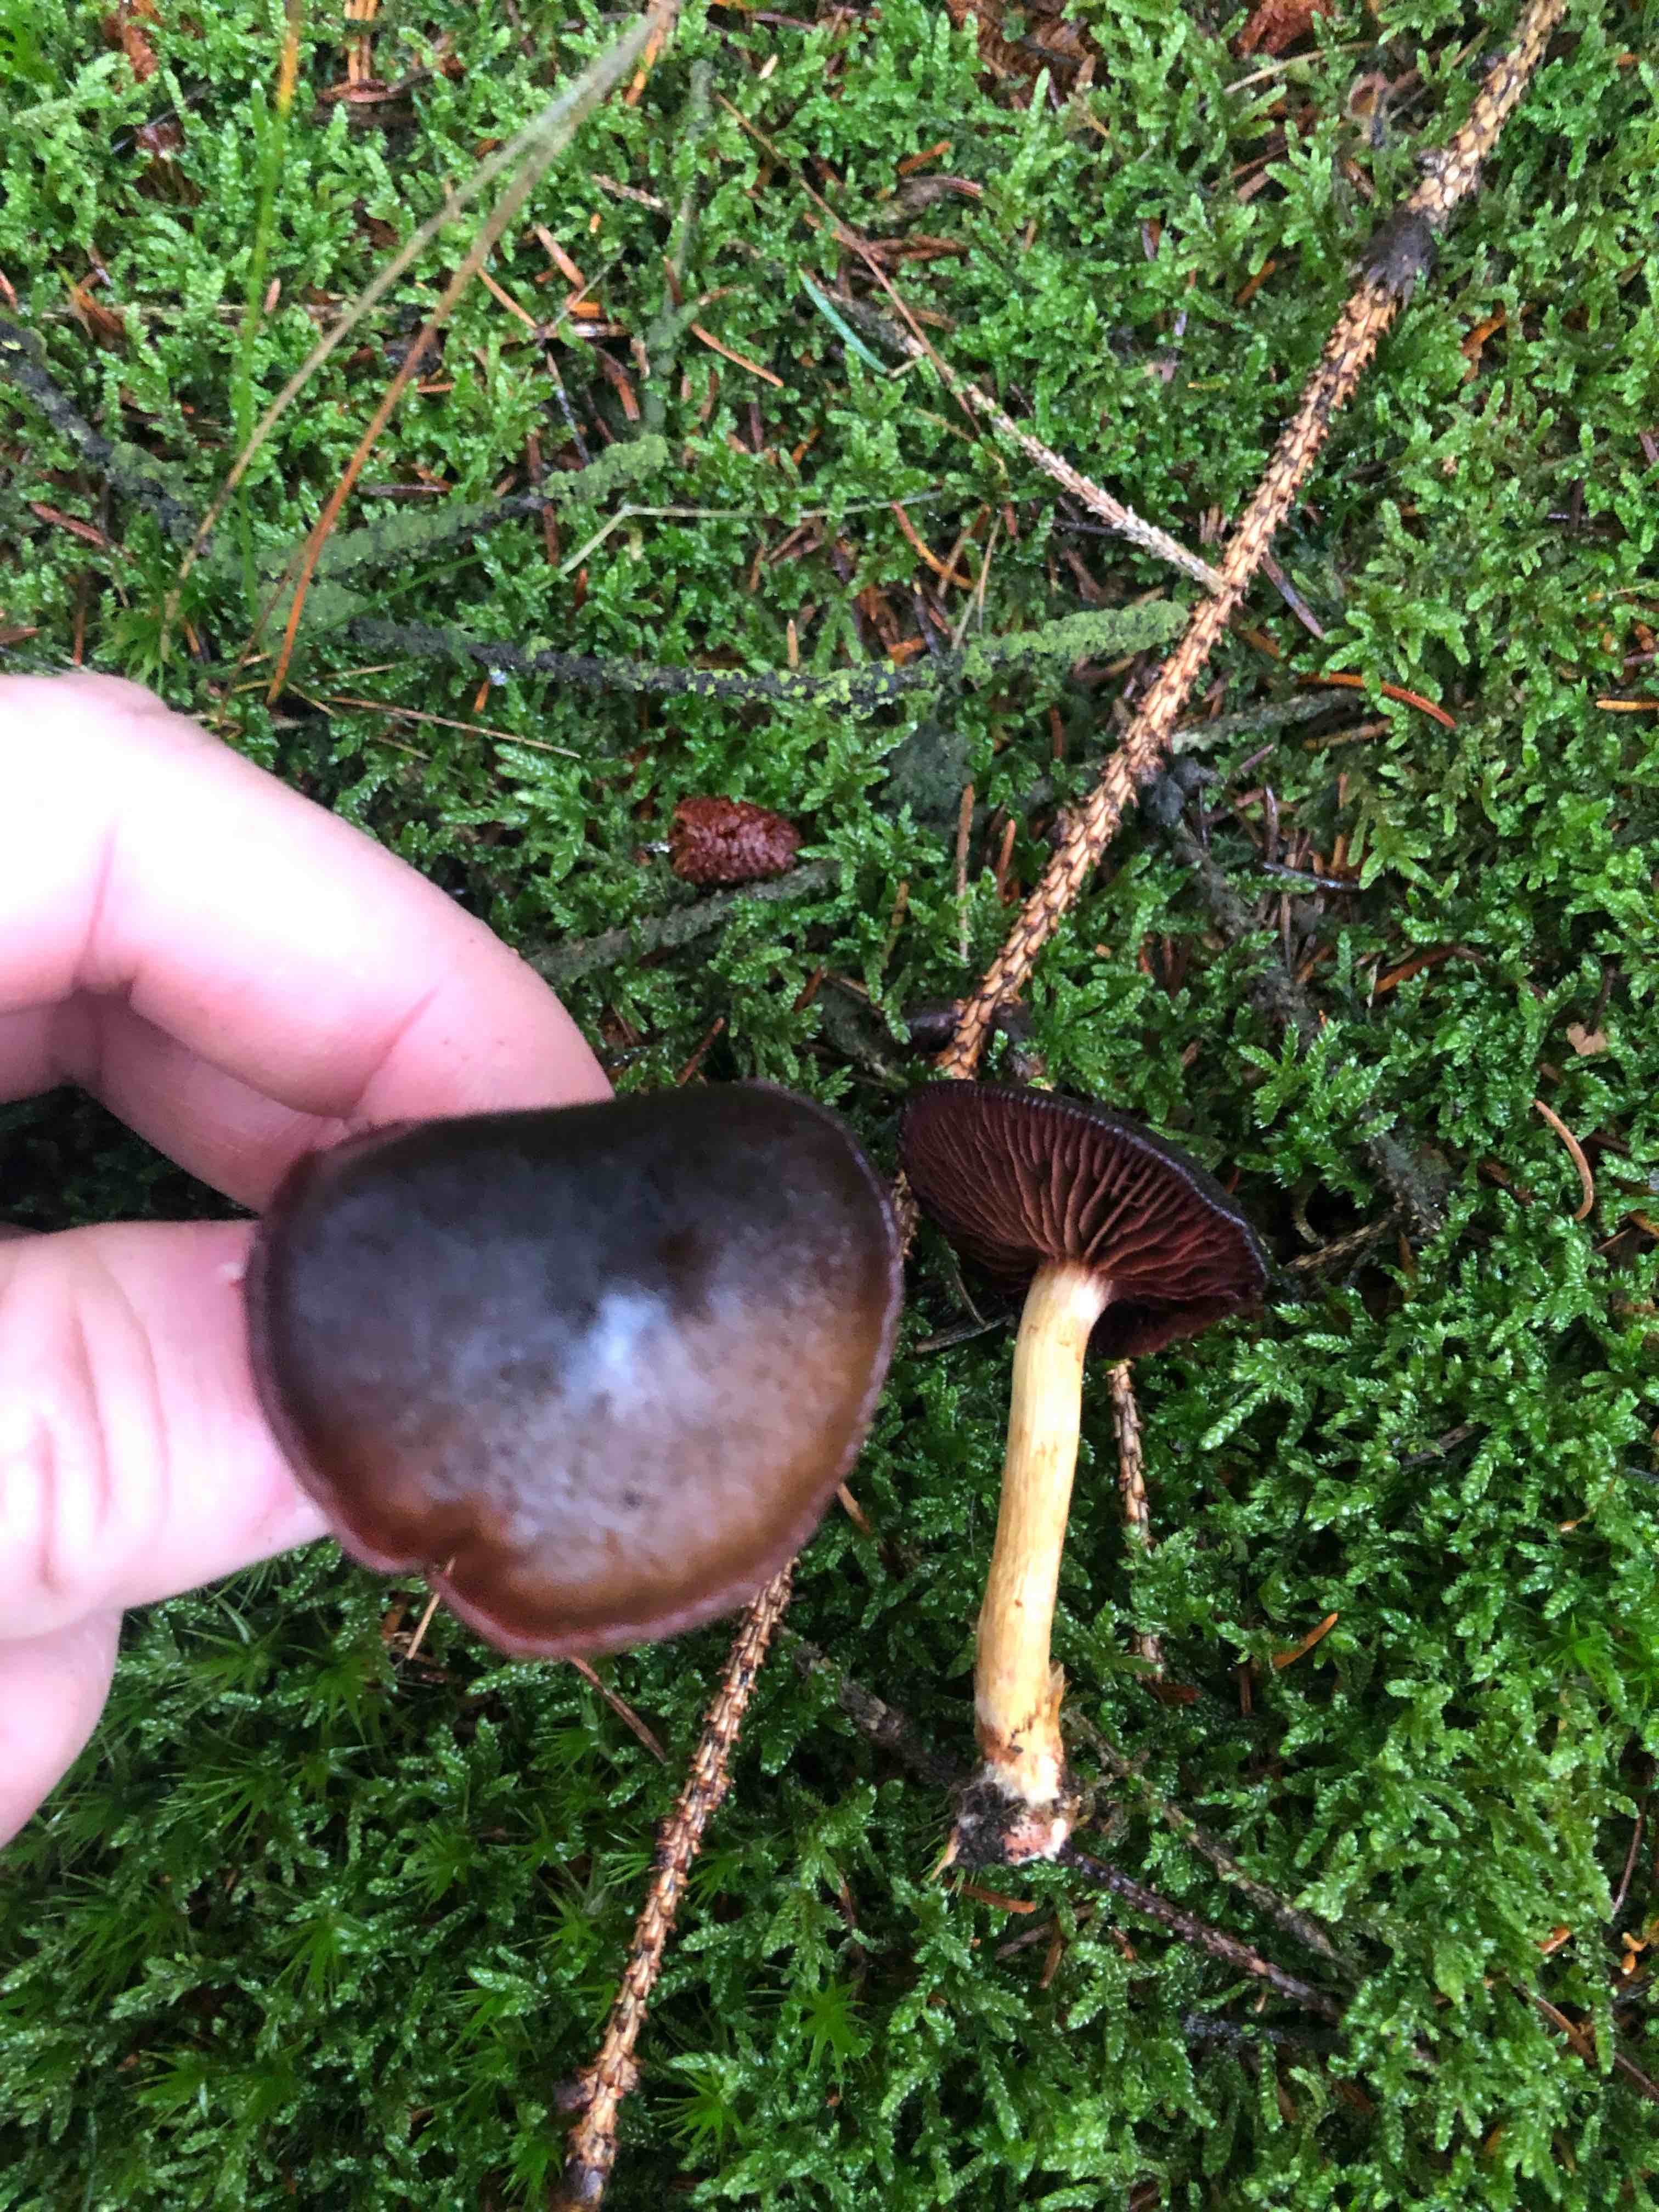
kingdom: Fungi
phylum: Basidiomycota
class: Agaricomycetes
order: Agaricales
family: Cortinariaceae
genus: Cortinarius
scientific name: Cortinarius
